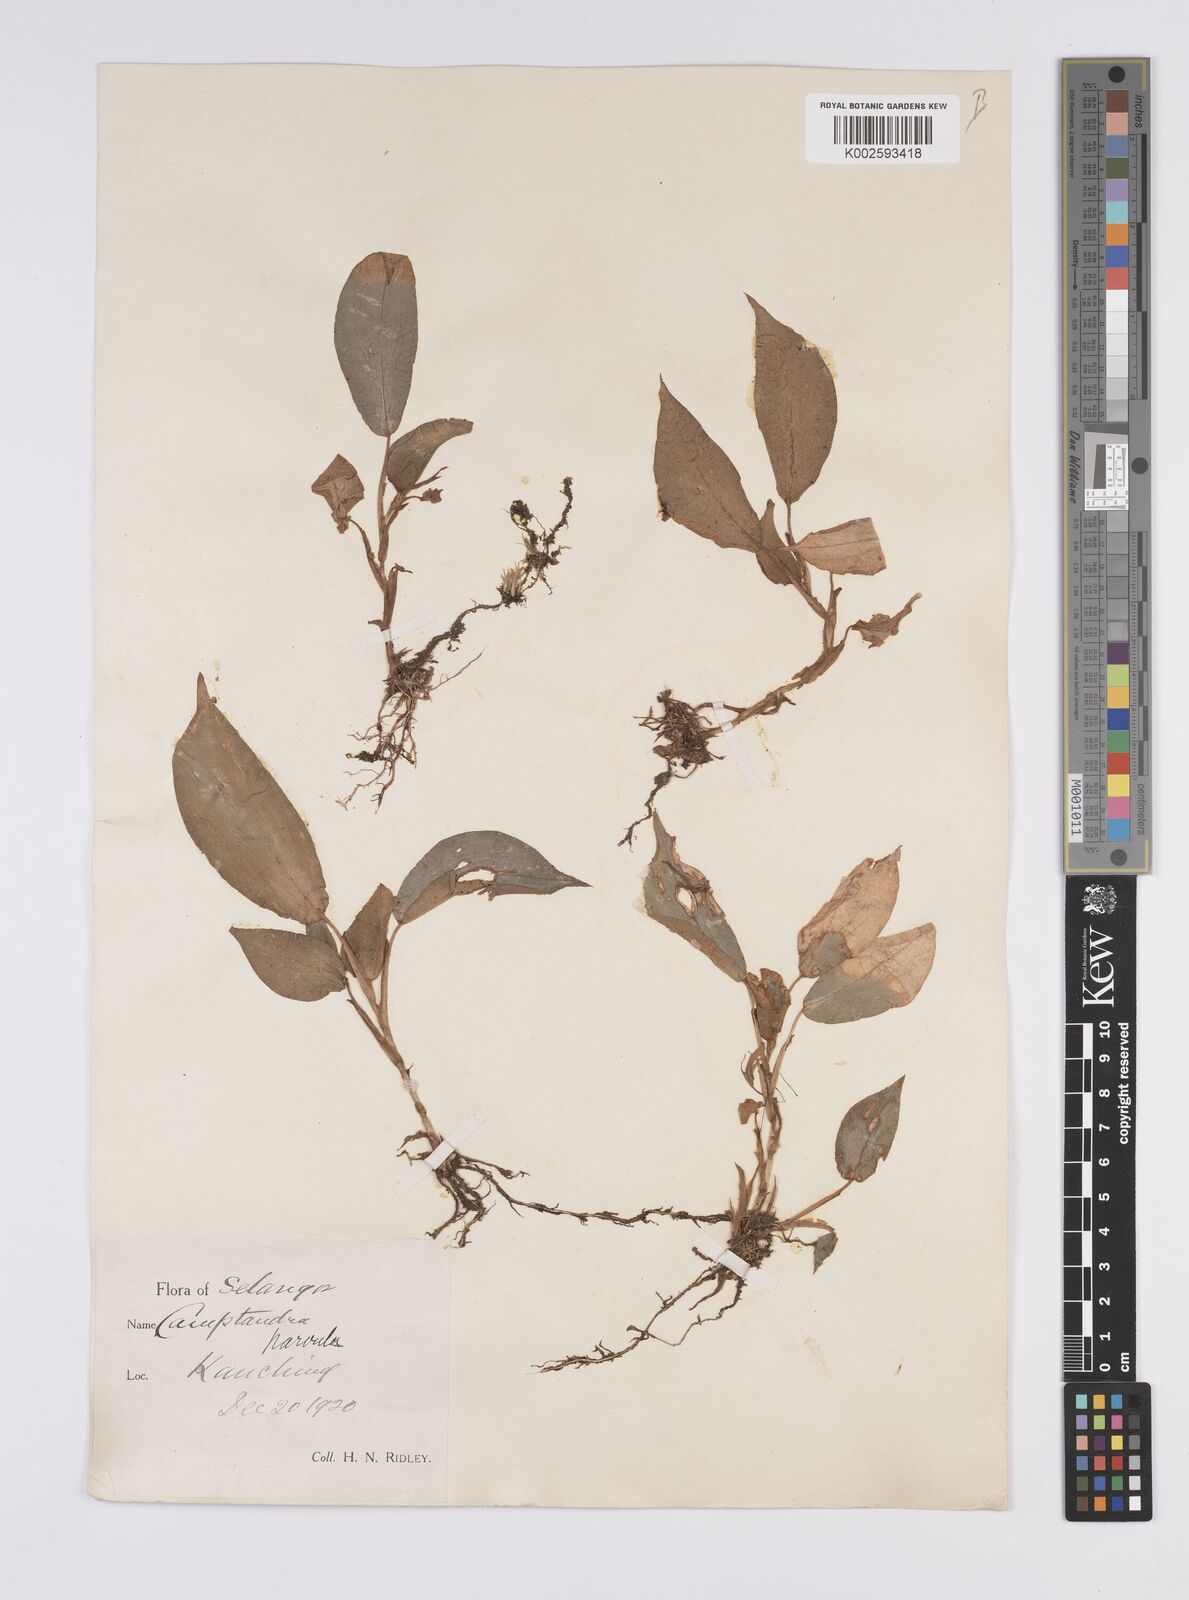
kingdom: Plantae
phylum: Tracheophyta
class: Liliopsida
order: Zingiberales
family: Zingiberaceae
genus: Camptandra
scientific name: Camptandra parvula
